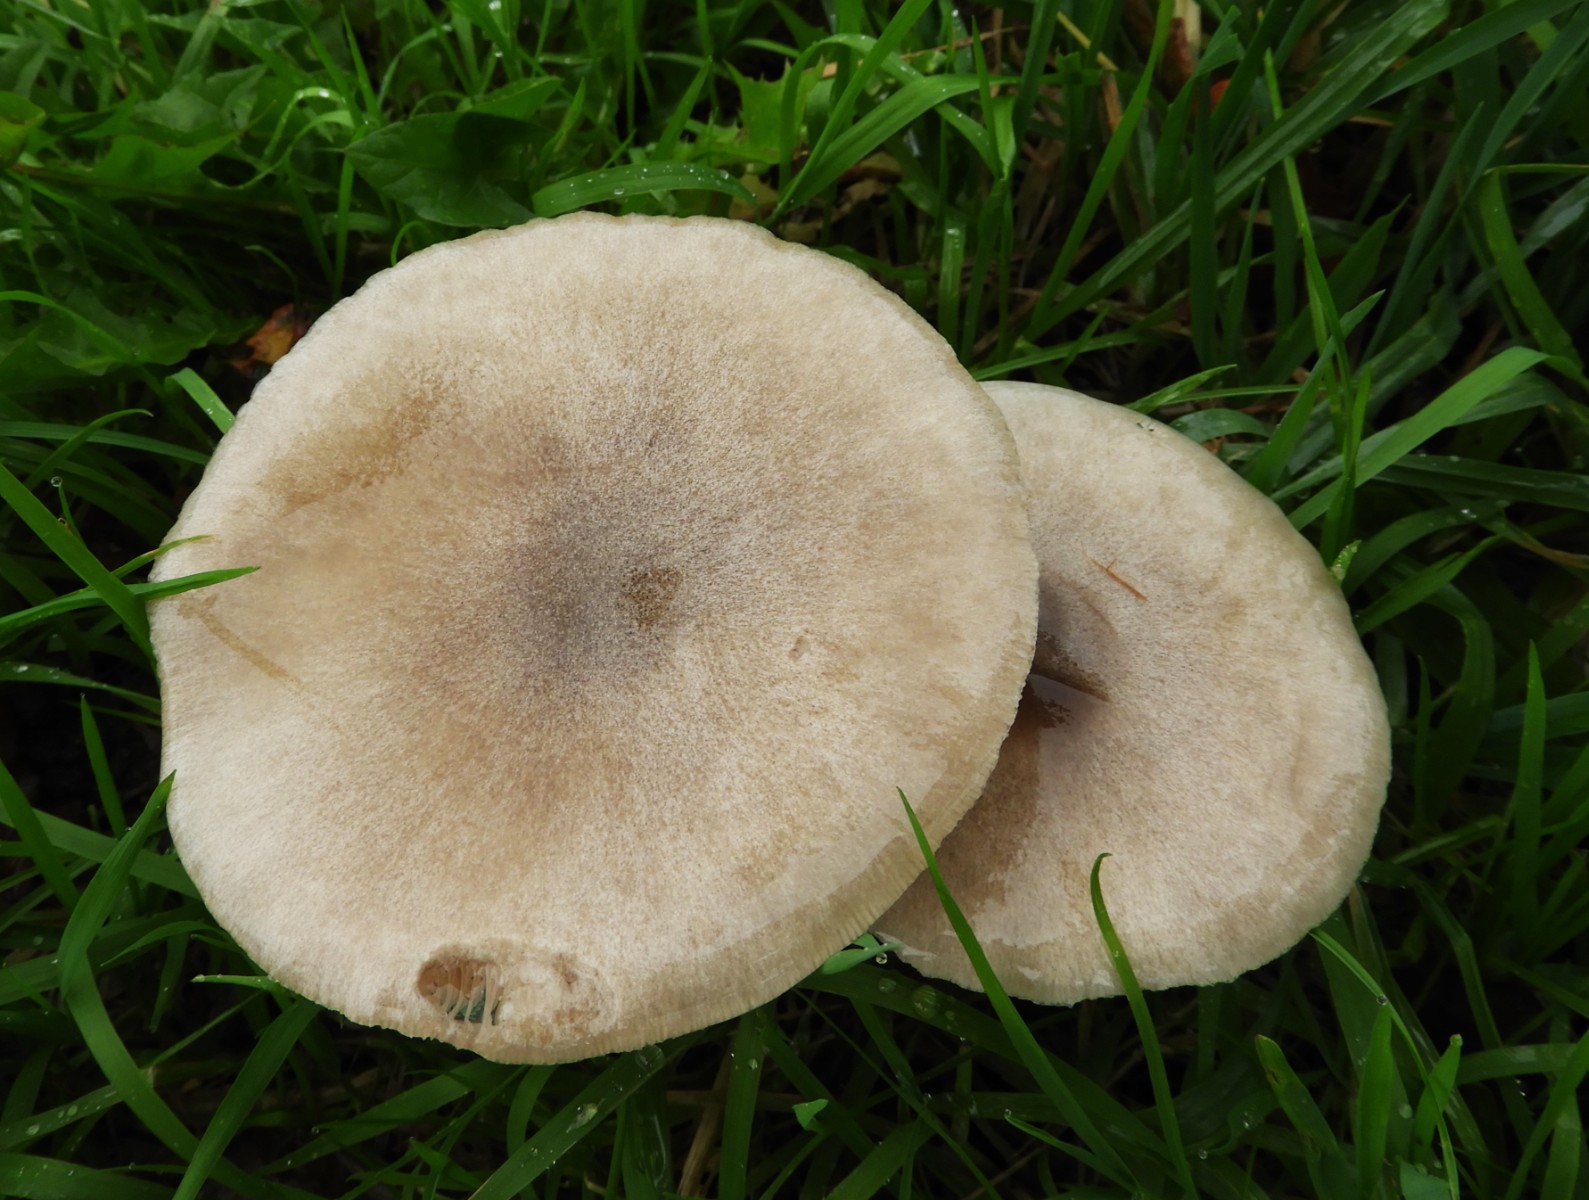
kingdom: Fungi
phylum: Basidiomycota
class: Agaricomycetes
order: Agaricales
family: Pluteaceae
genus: Volvopluteus
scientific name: Volvopluteus gloiocephalus
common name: høj posesvamp
